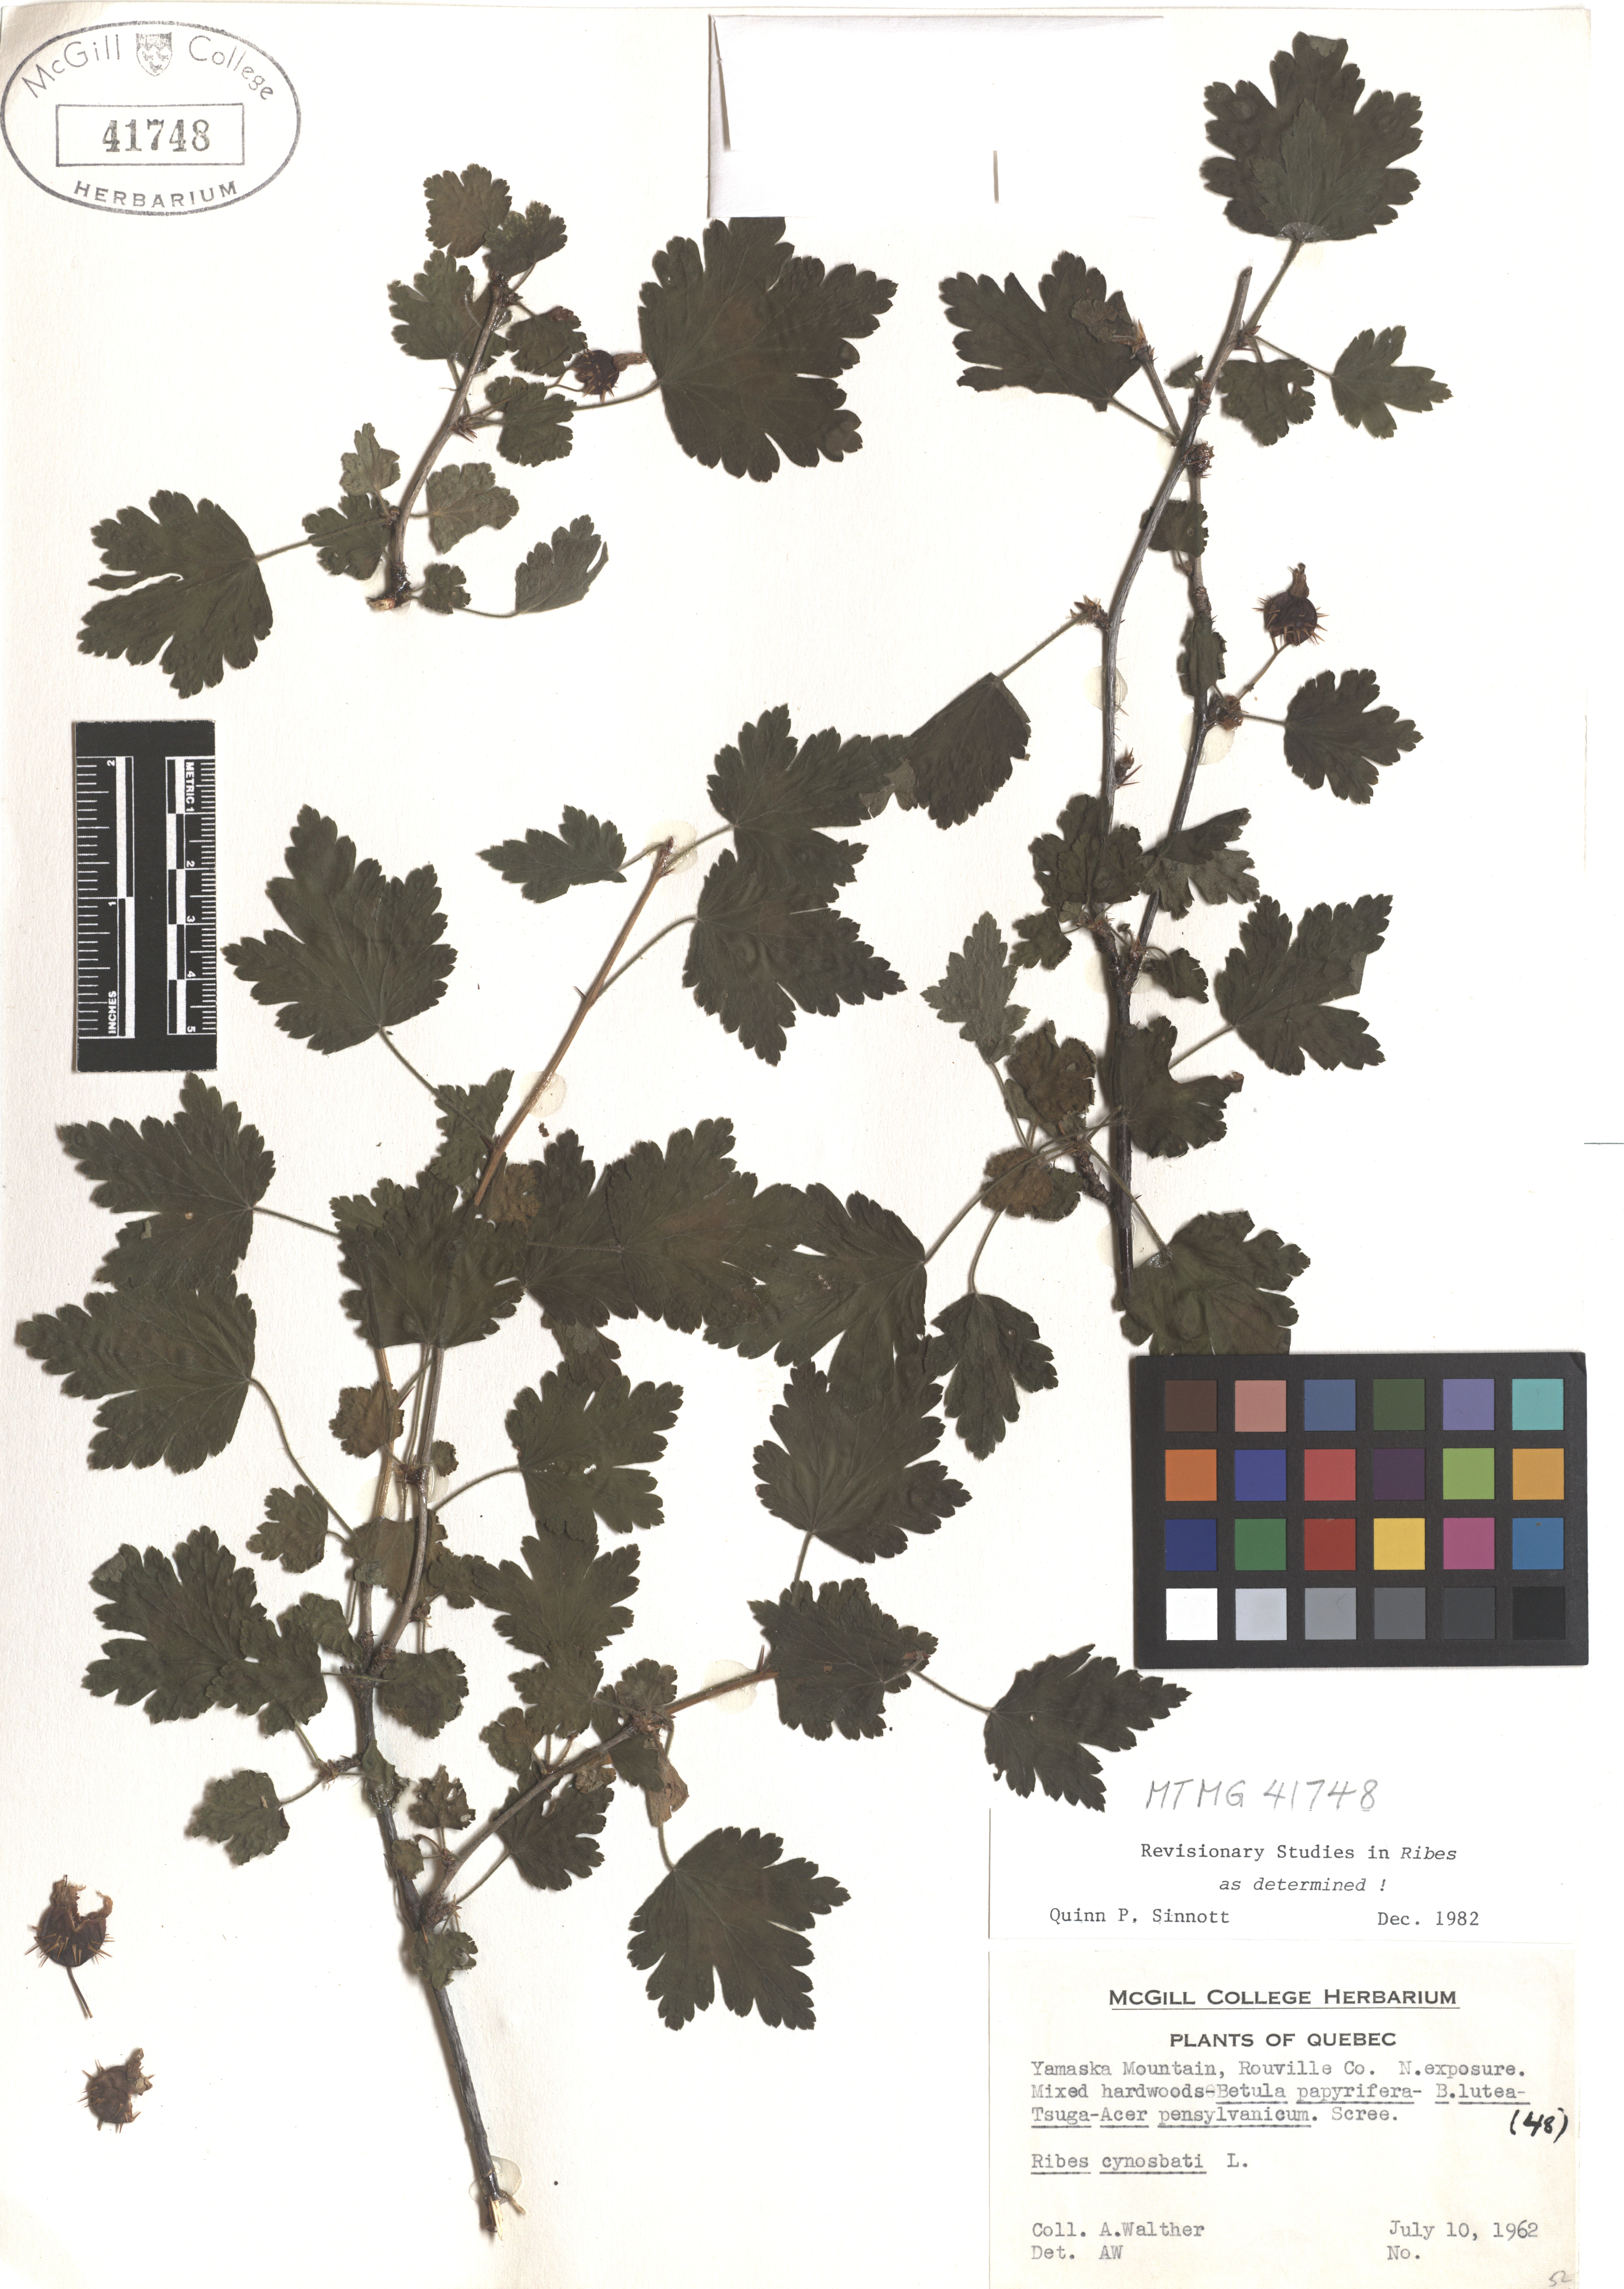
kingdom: Plantae
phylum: Tracheophyta
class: Magnoliopsida
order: Saxifragales
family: Grossulariaceae
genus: Ribes
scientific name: Ribes cynosbati
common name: American gooseberry
